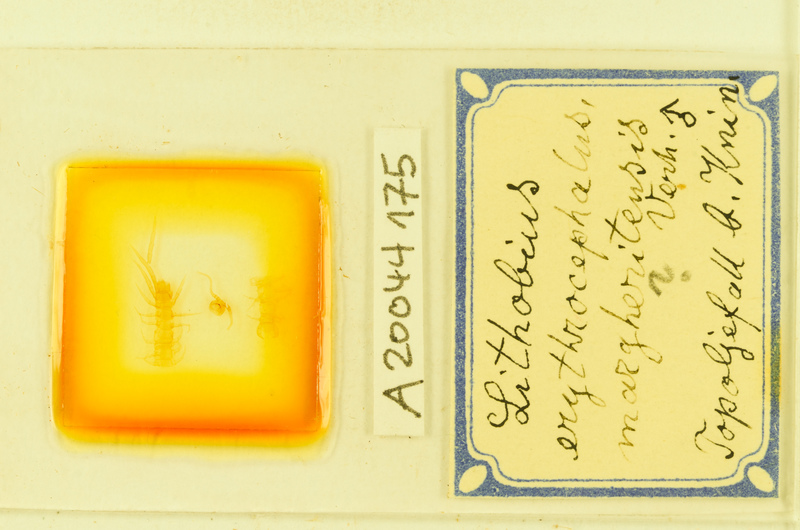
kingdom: Animalia
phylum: Arthropoda
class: Chilopoda
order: Lithobiomorpha
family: Lithobiidae
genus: Lithobius
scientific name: Lithobius erythrocephalus
